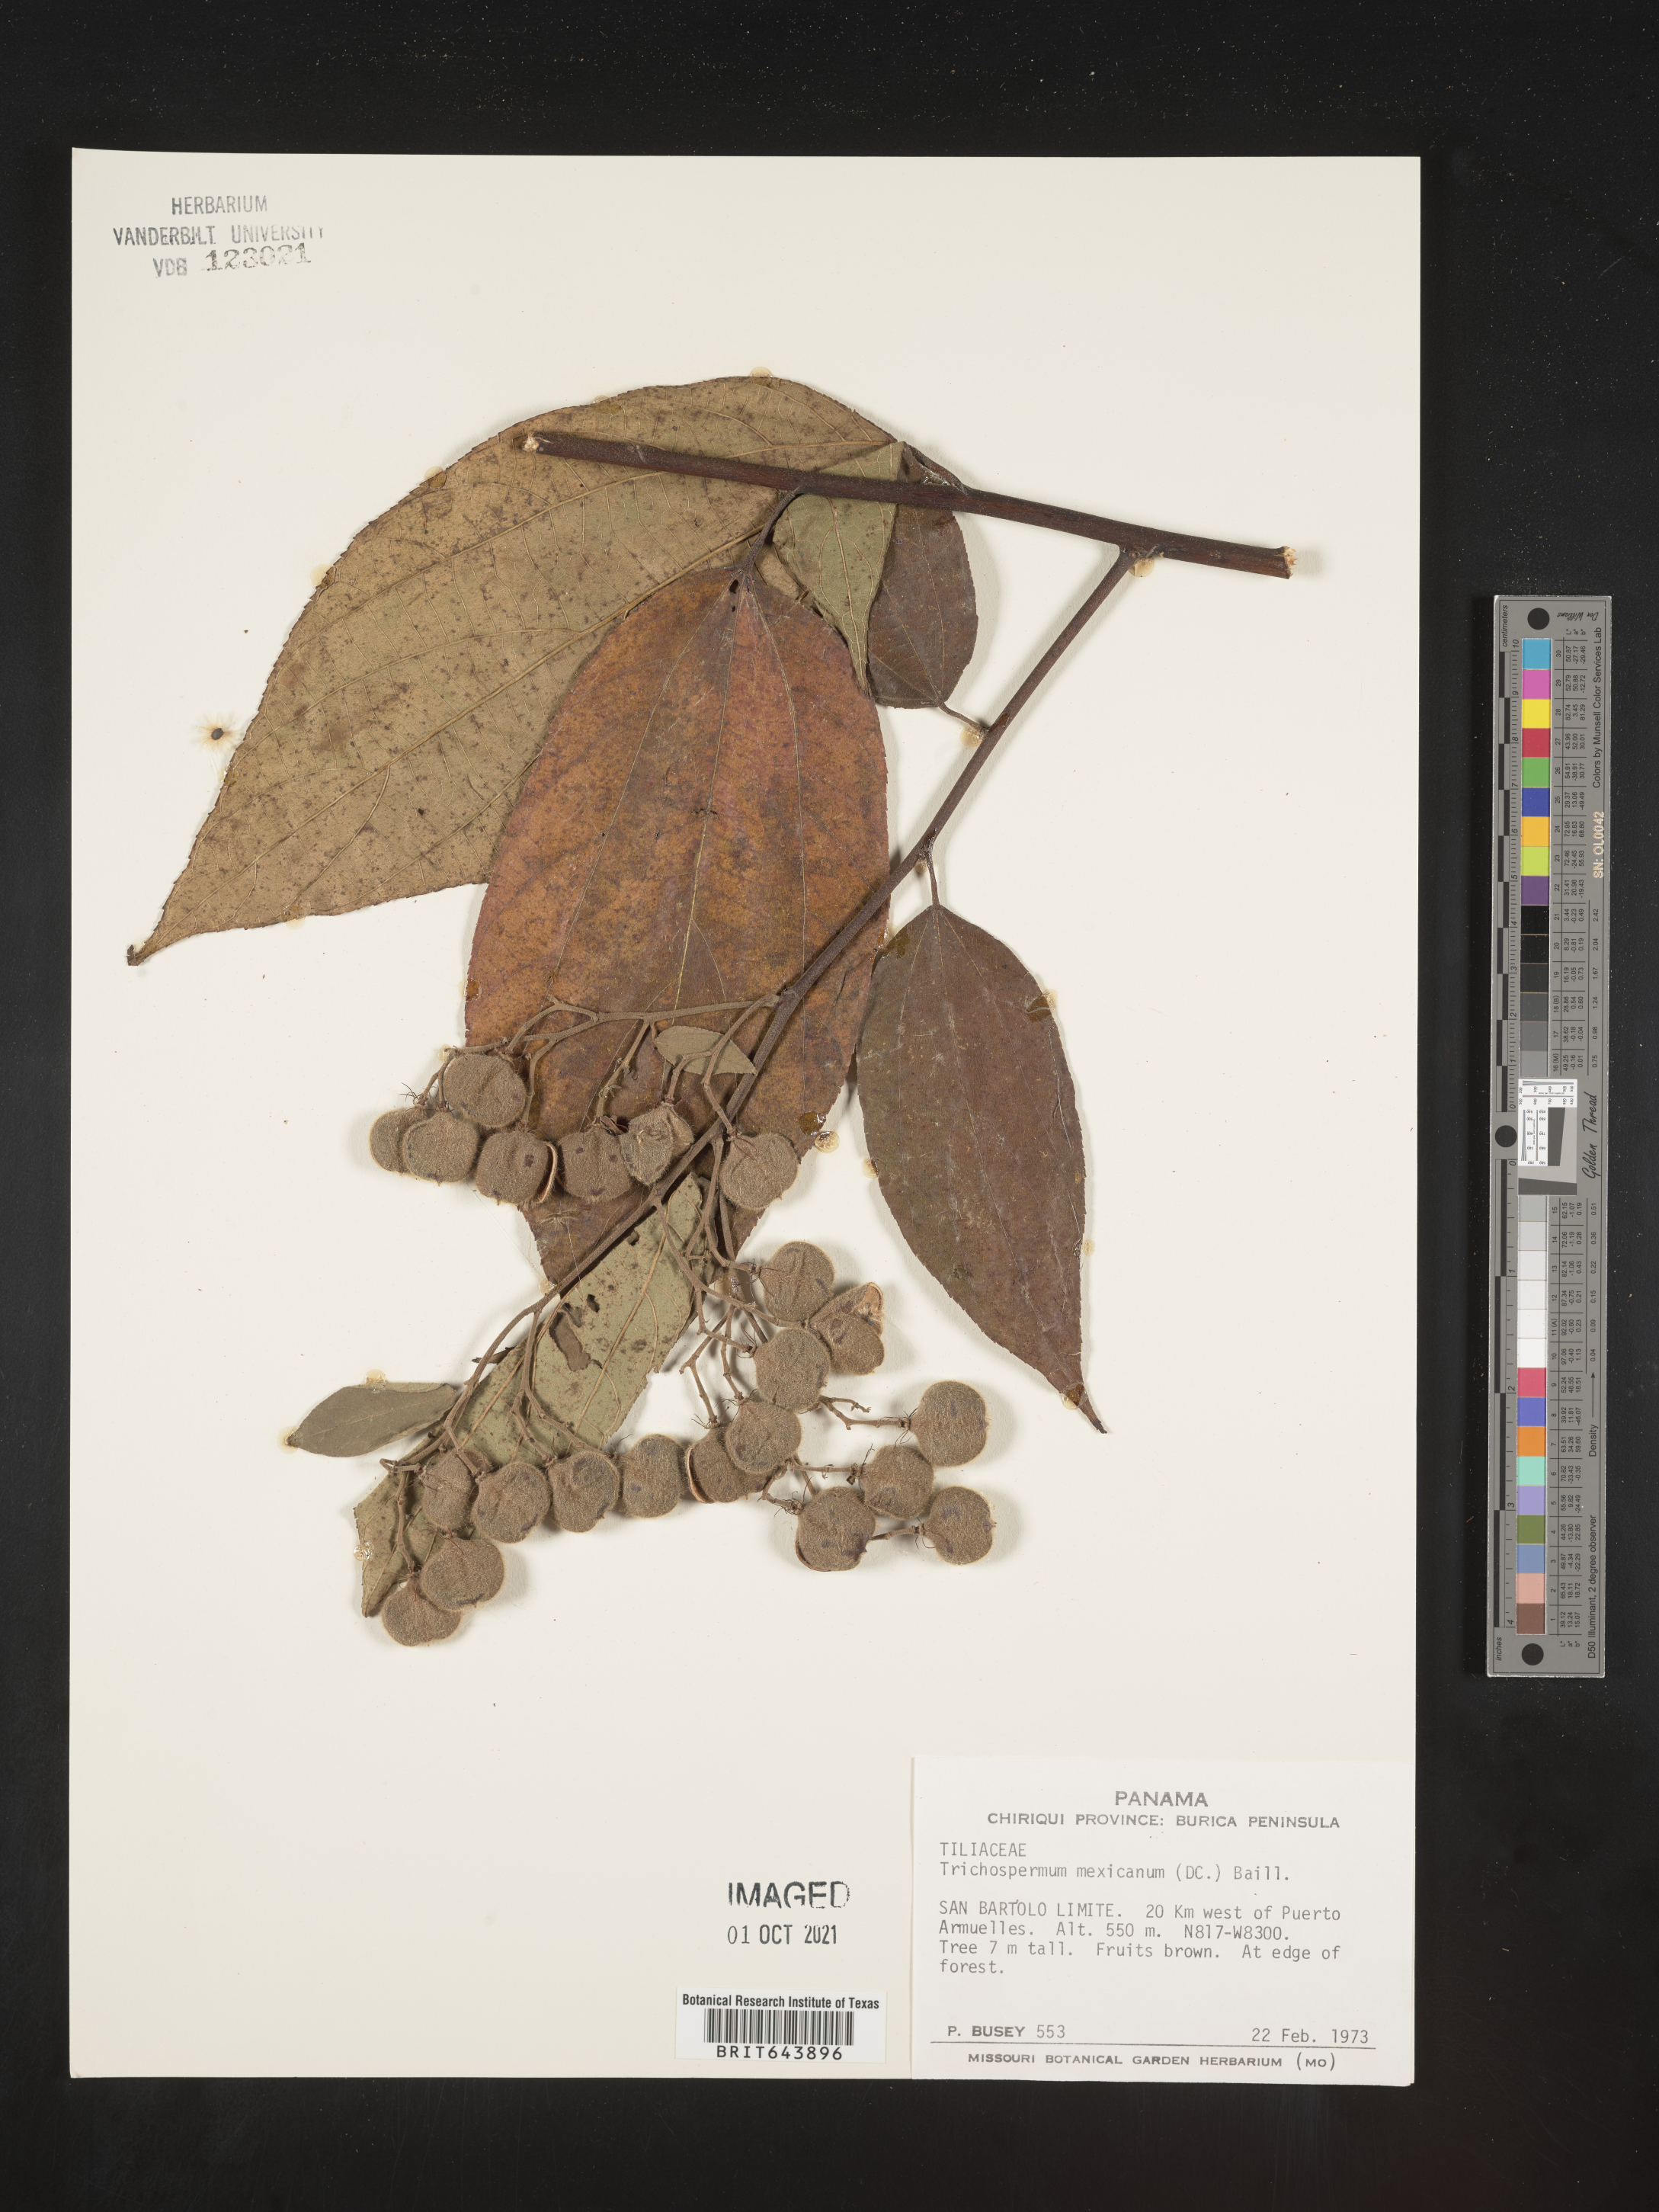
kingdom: Plantae
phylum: Tracheophyta
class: Magnoliopsida
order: Malvales
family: Malvaceae
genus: Trichospermum
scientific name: Trichospermum
